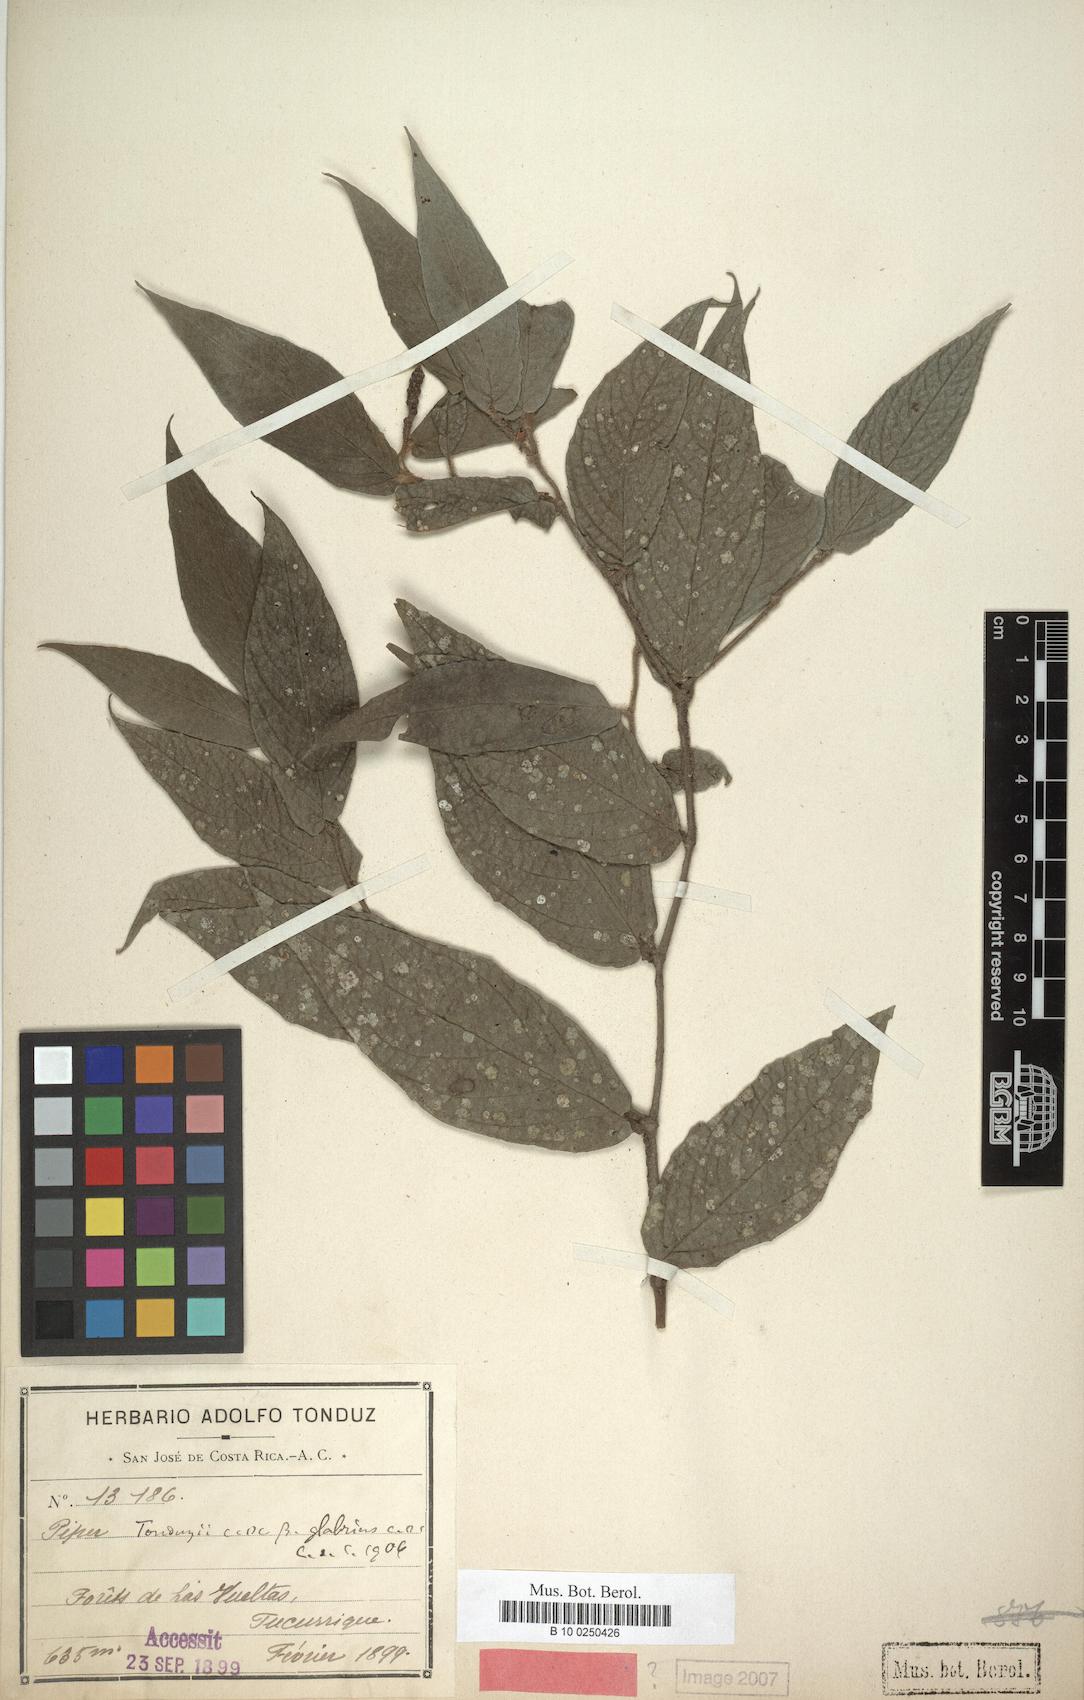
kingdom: Plantae
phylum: Tracheophyta
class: Magnoliopsida
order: Piperales
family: Piperaceae
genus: Piper
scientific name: Piper tonduzii
